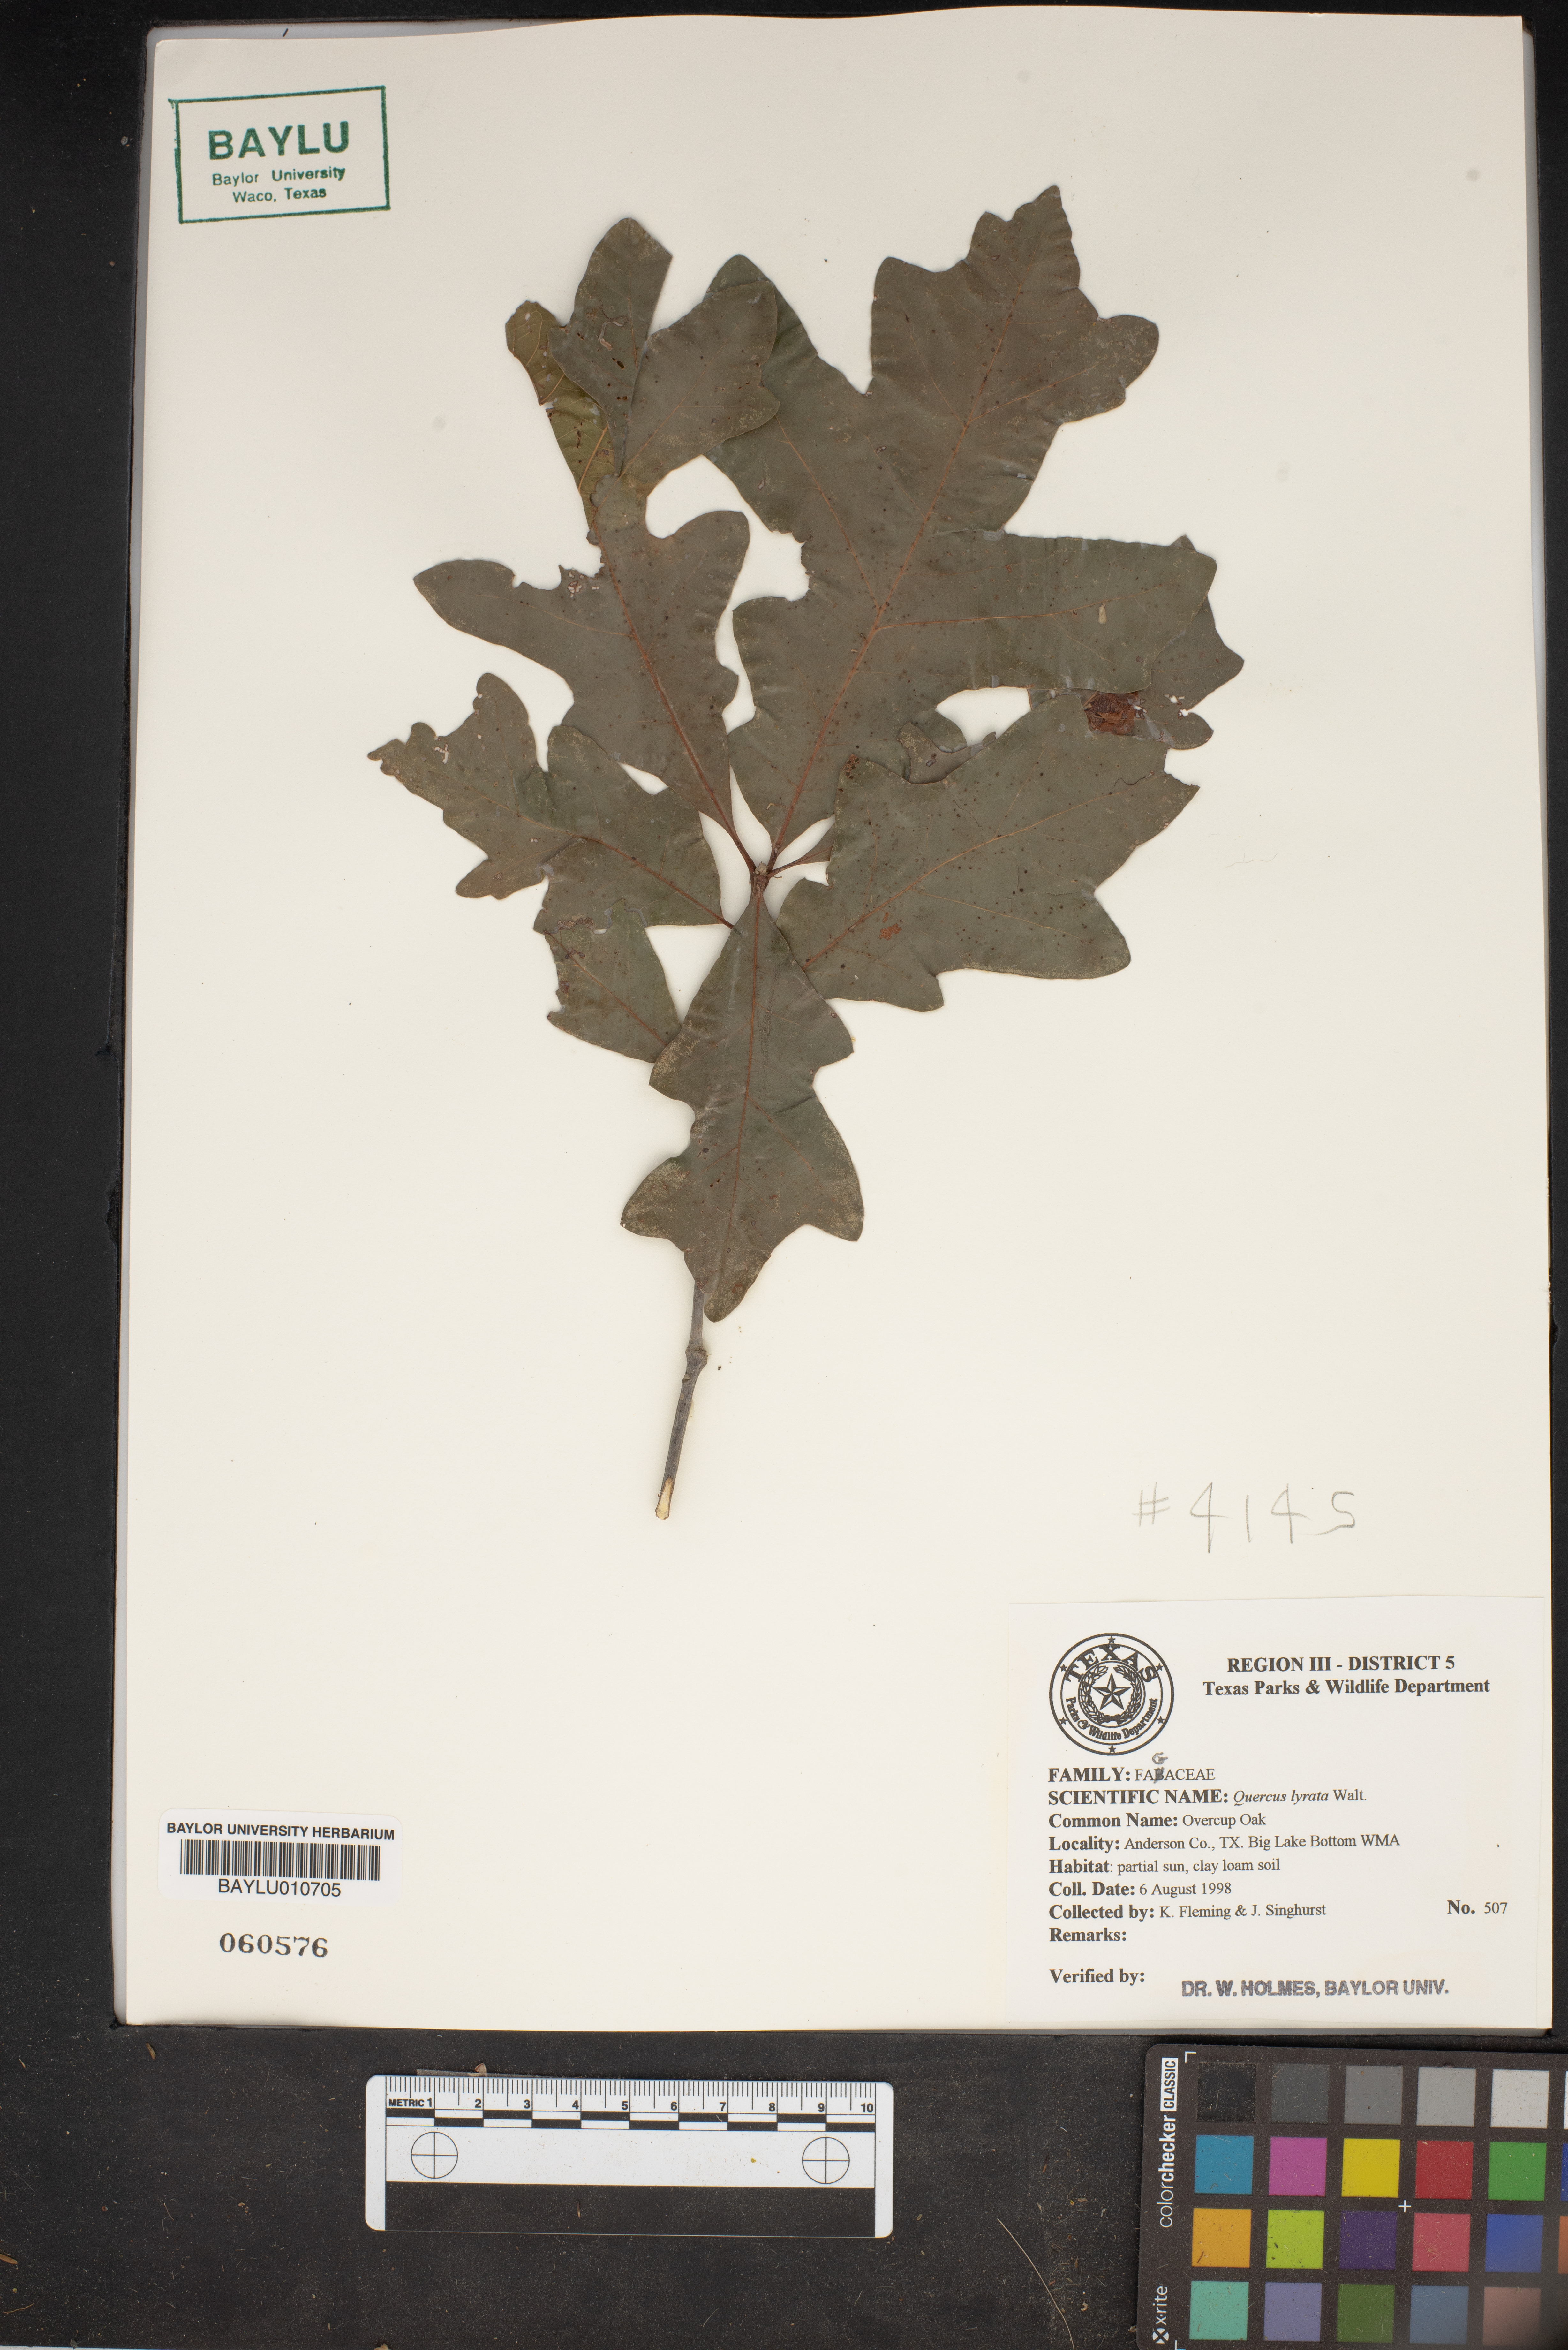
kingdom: Plantae
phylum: Tracheophyta
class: Magnoliopsida
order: Fagales
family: Fagaceae
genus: Quercus
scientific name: Quercus lyrata
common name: Overcup oak
